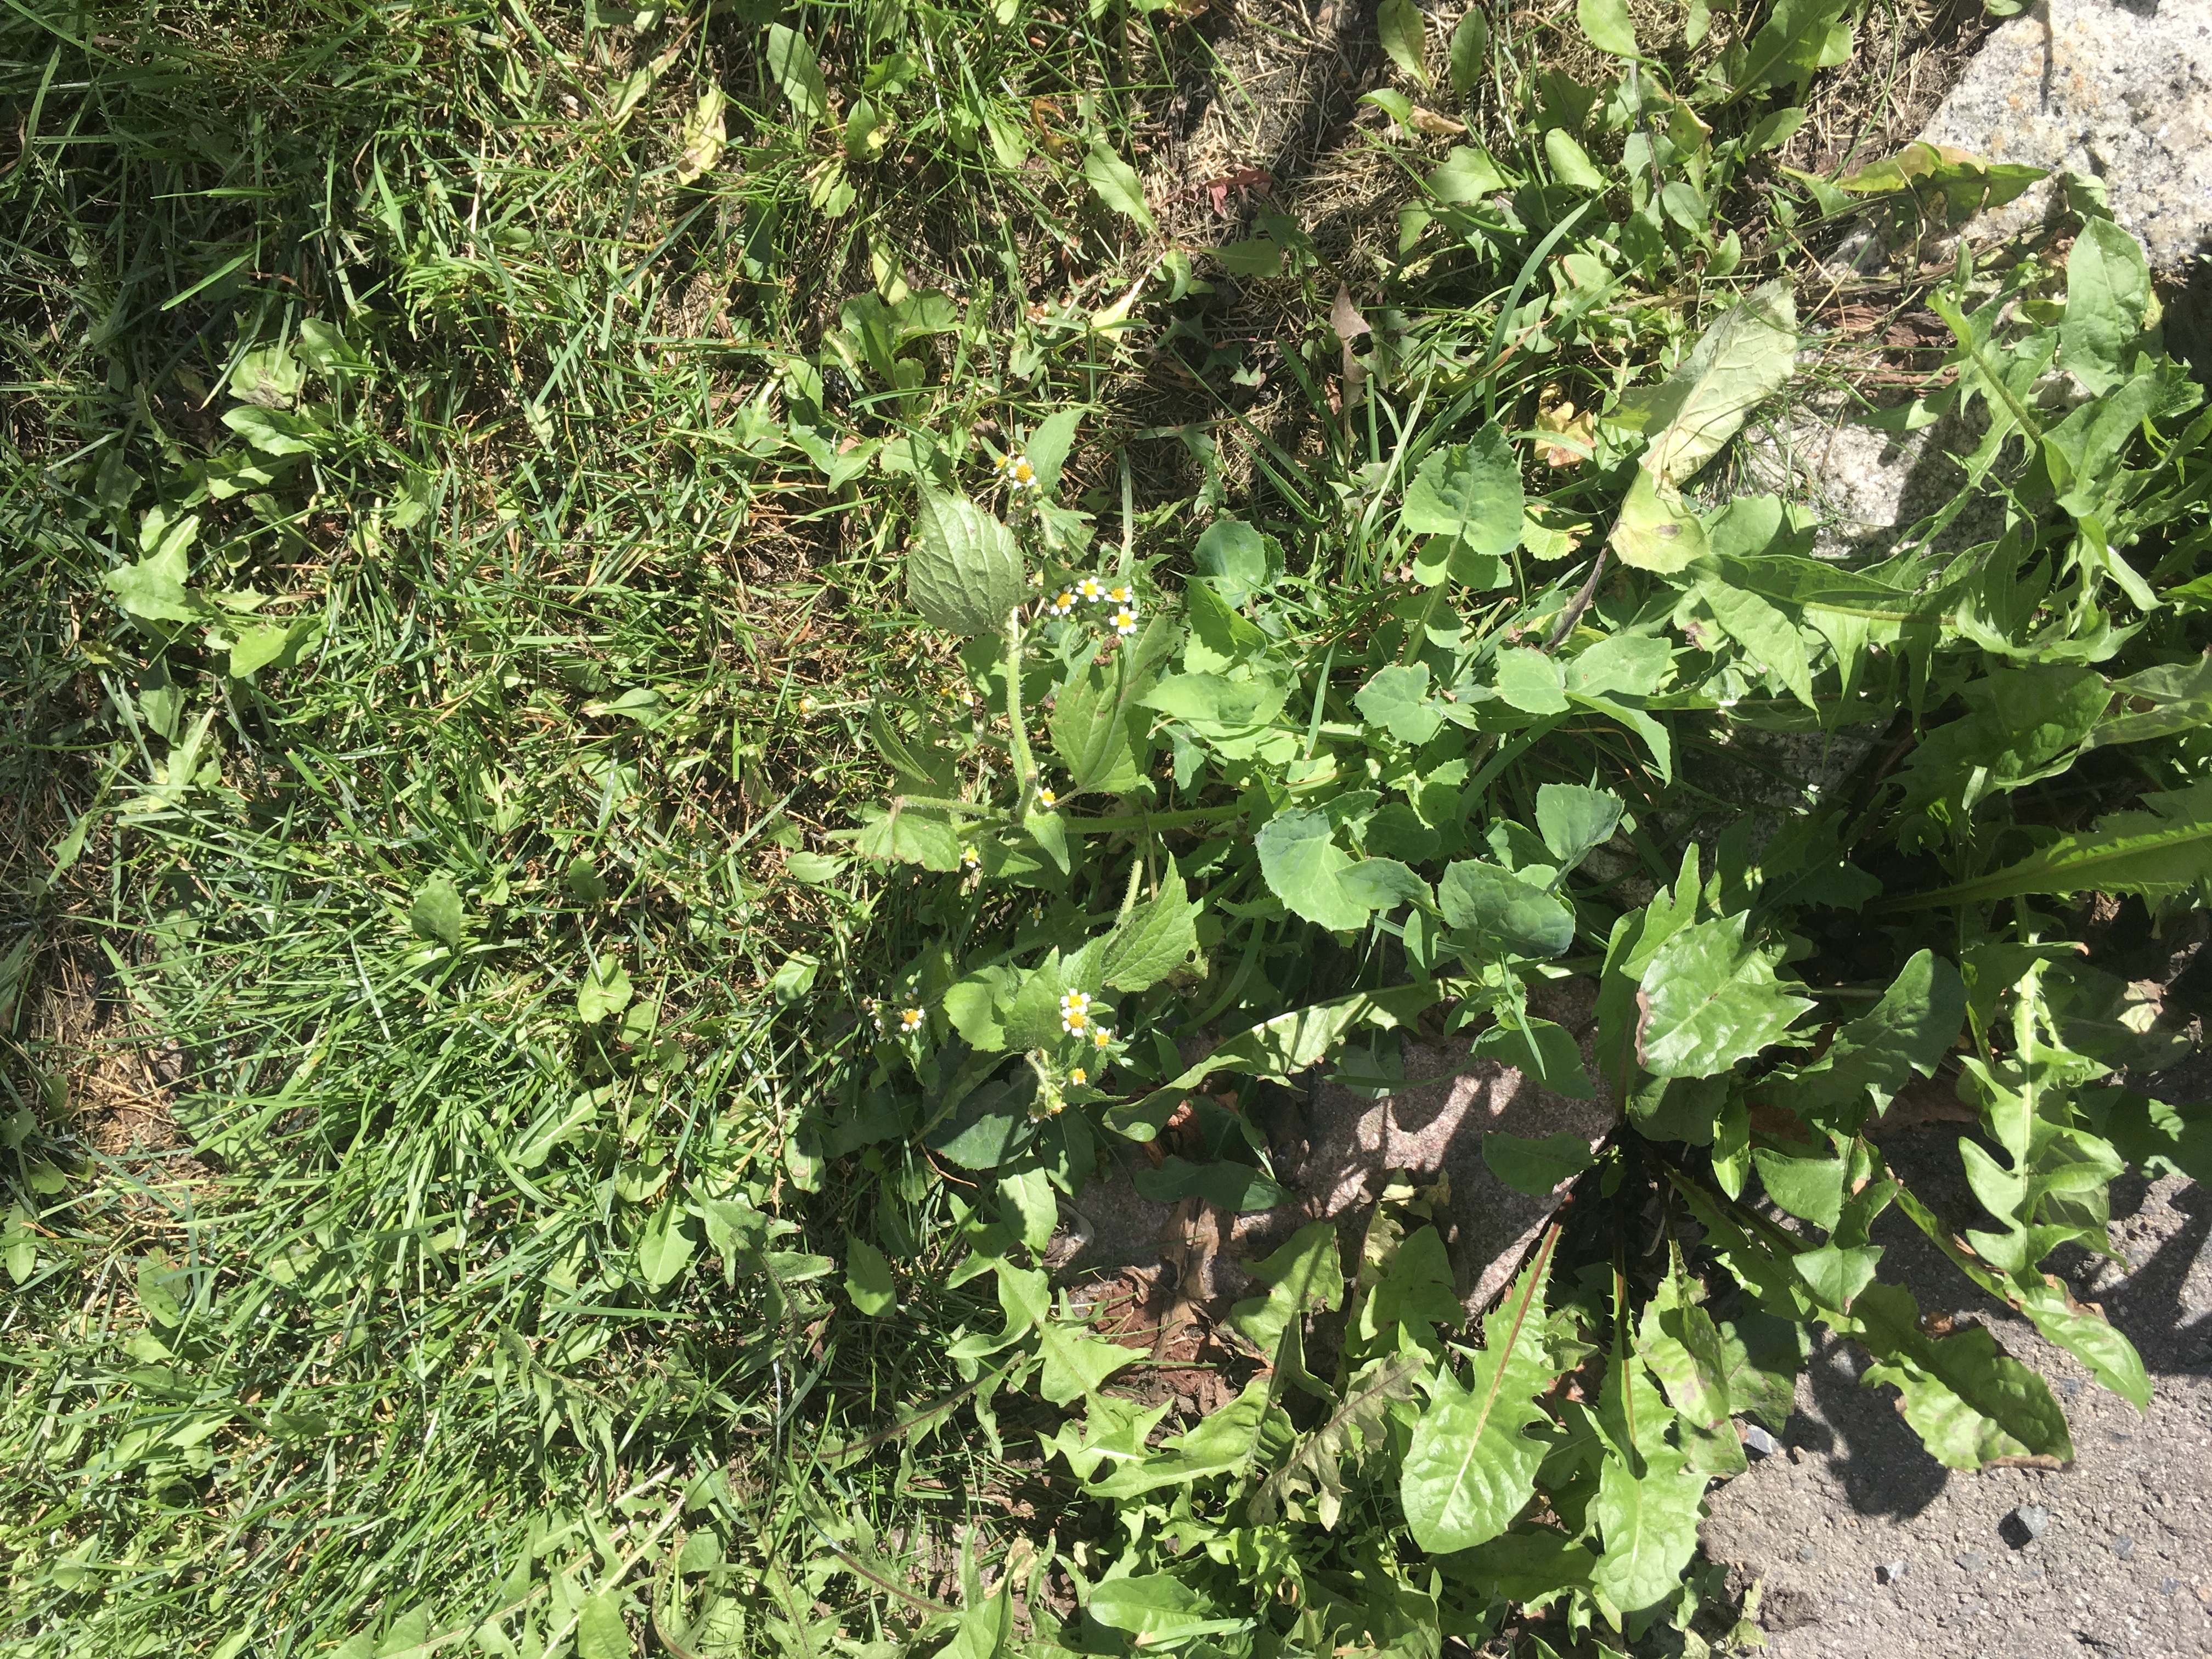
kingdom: Plantae
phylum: Tracheophyta
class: Magnoliopsida
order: Asterales
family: Asteraceae
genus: Galinsoga
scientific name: Galinsoga quadriradiata
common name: nesleskjellfrø
